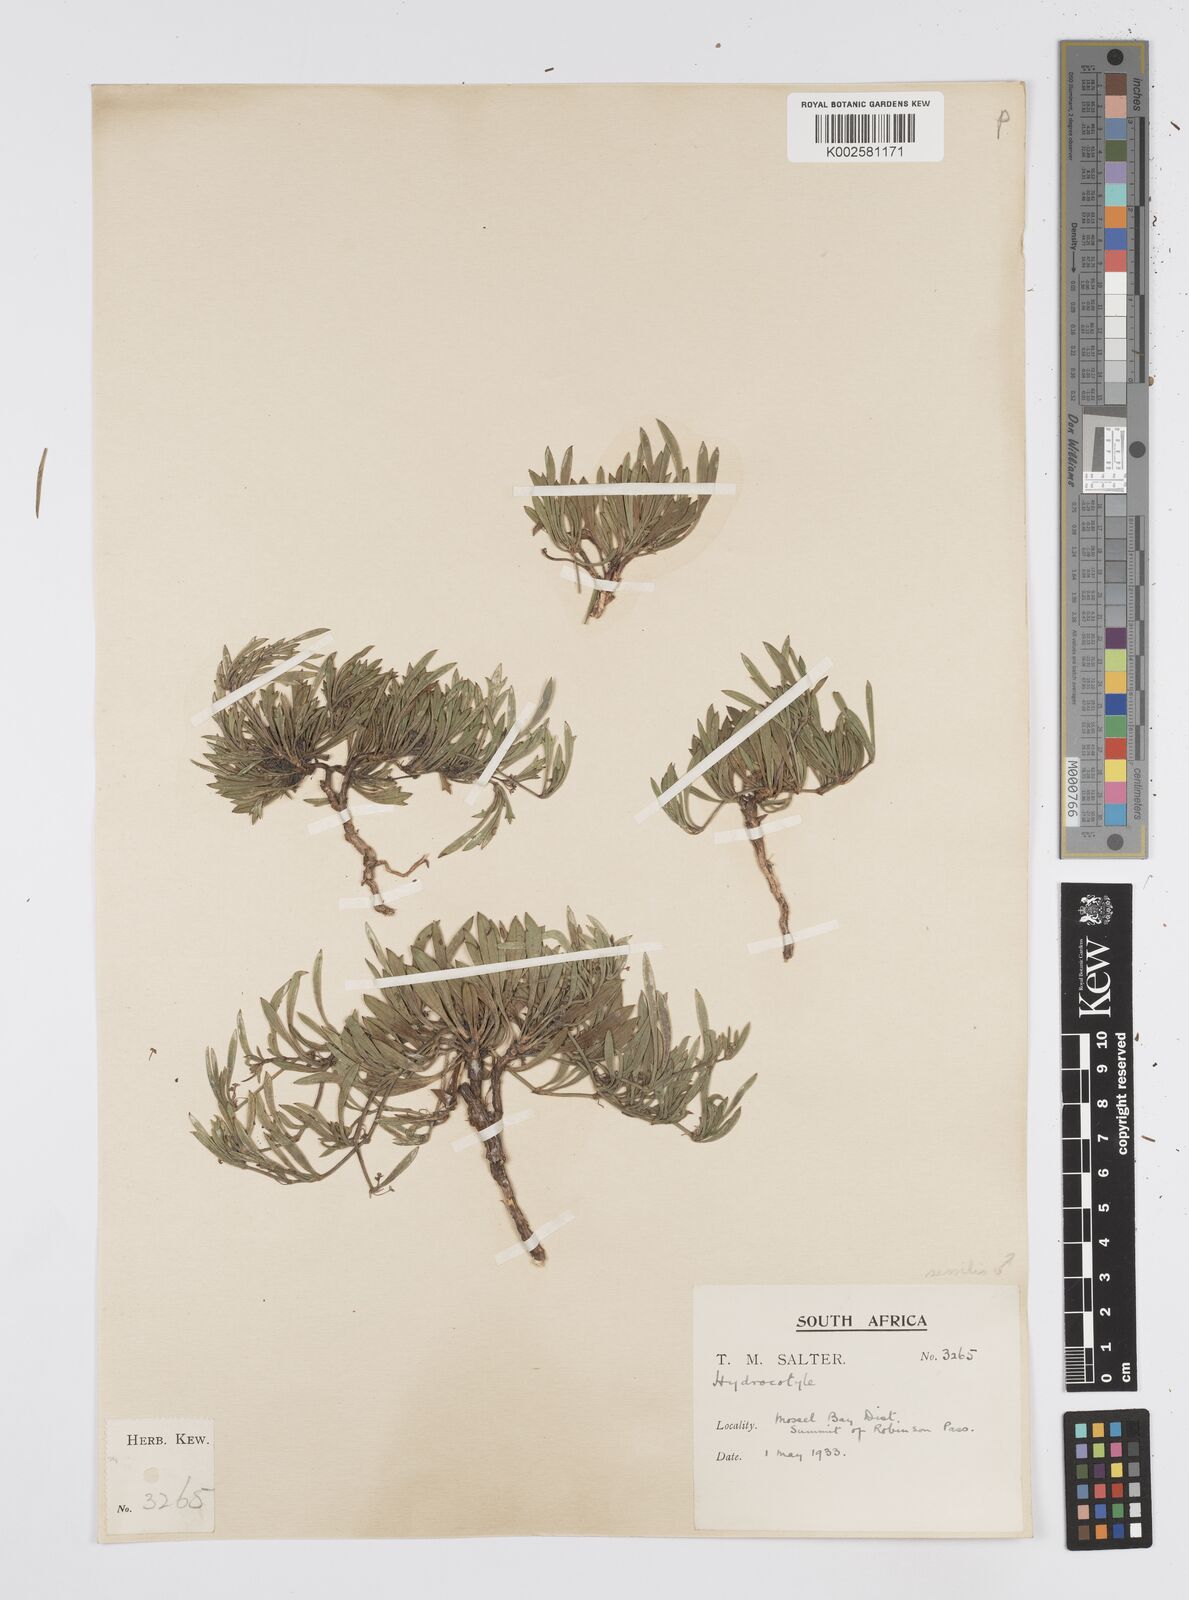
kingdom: Plantae
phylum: Tracheophyta
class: Magnoliopsida
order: Apiales
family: Apiaceae
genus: Centella
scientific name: Centella sessilis
